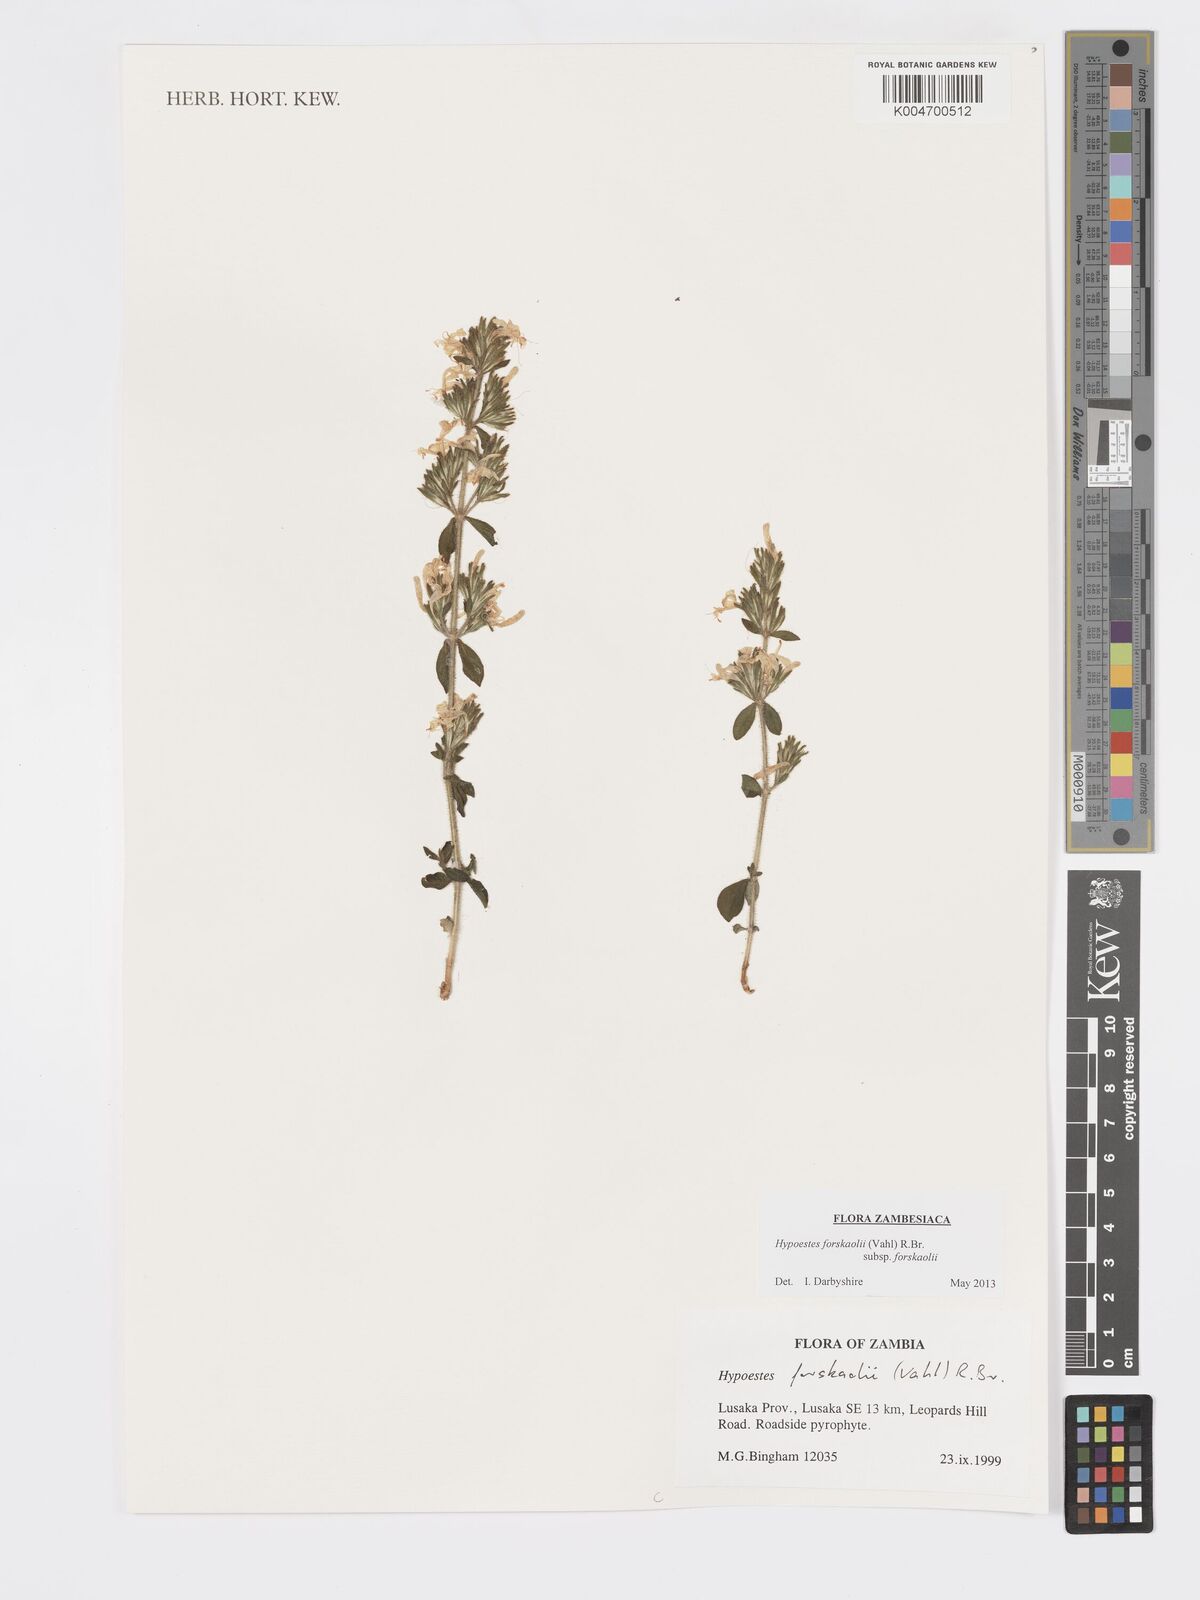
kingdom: Plantae
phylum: Tracheophyta
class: Magnoliopsida
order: Lamiales
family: Acanthaceae
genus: Hypoestes
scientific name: Hypoestes forskaolii
